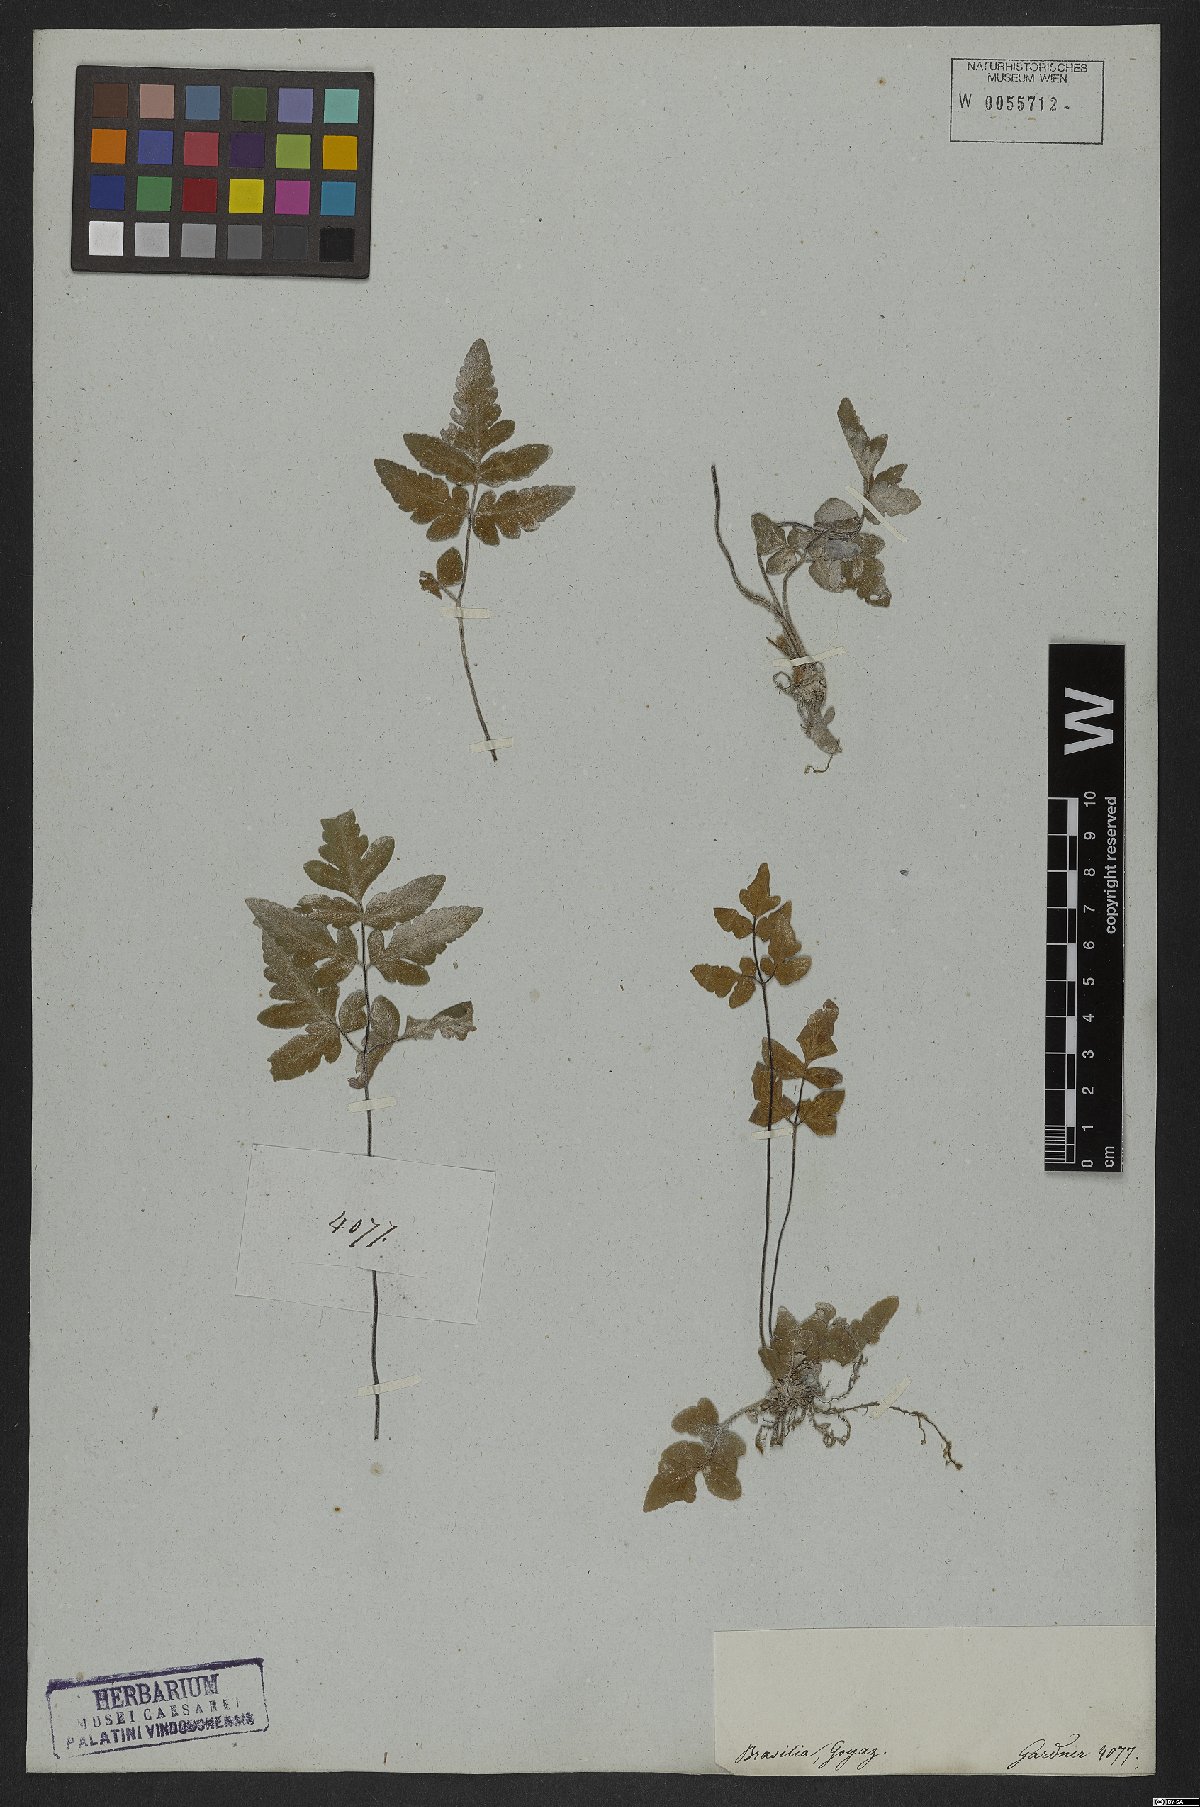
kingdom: Plantae
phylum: Tracheophyta
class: Polypodiopsida
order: Polypodiales
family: Pteridaceae
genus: Hemionitis
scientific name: Hemionitis tomentosa
